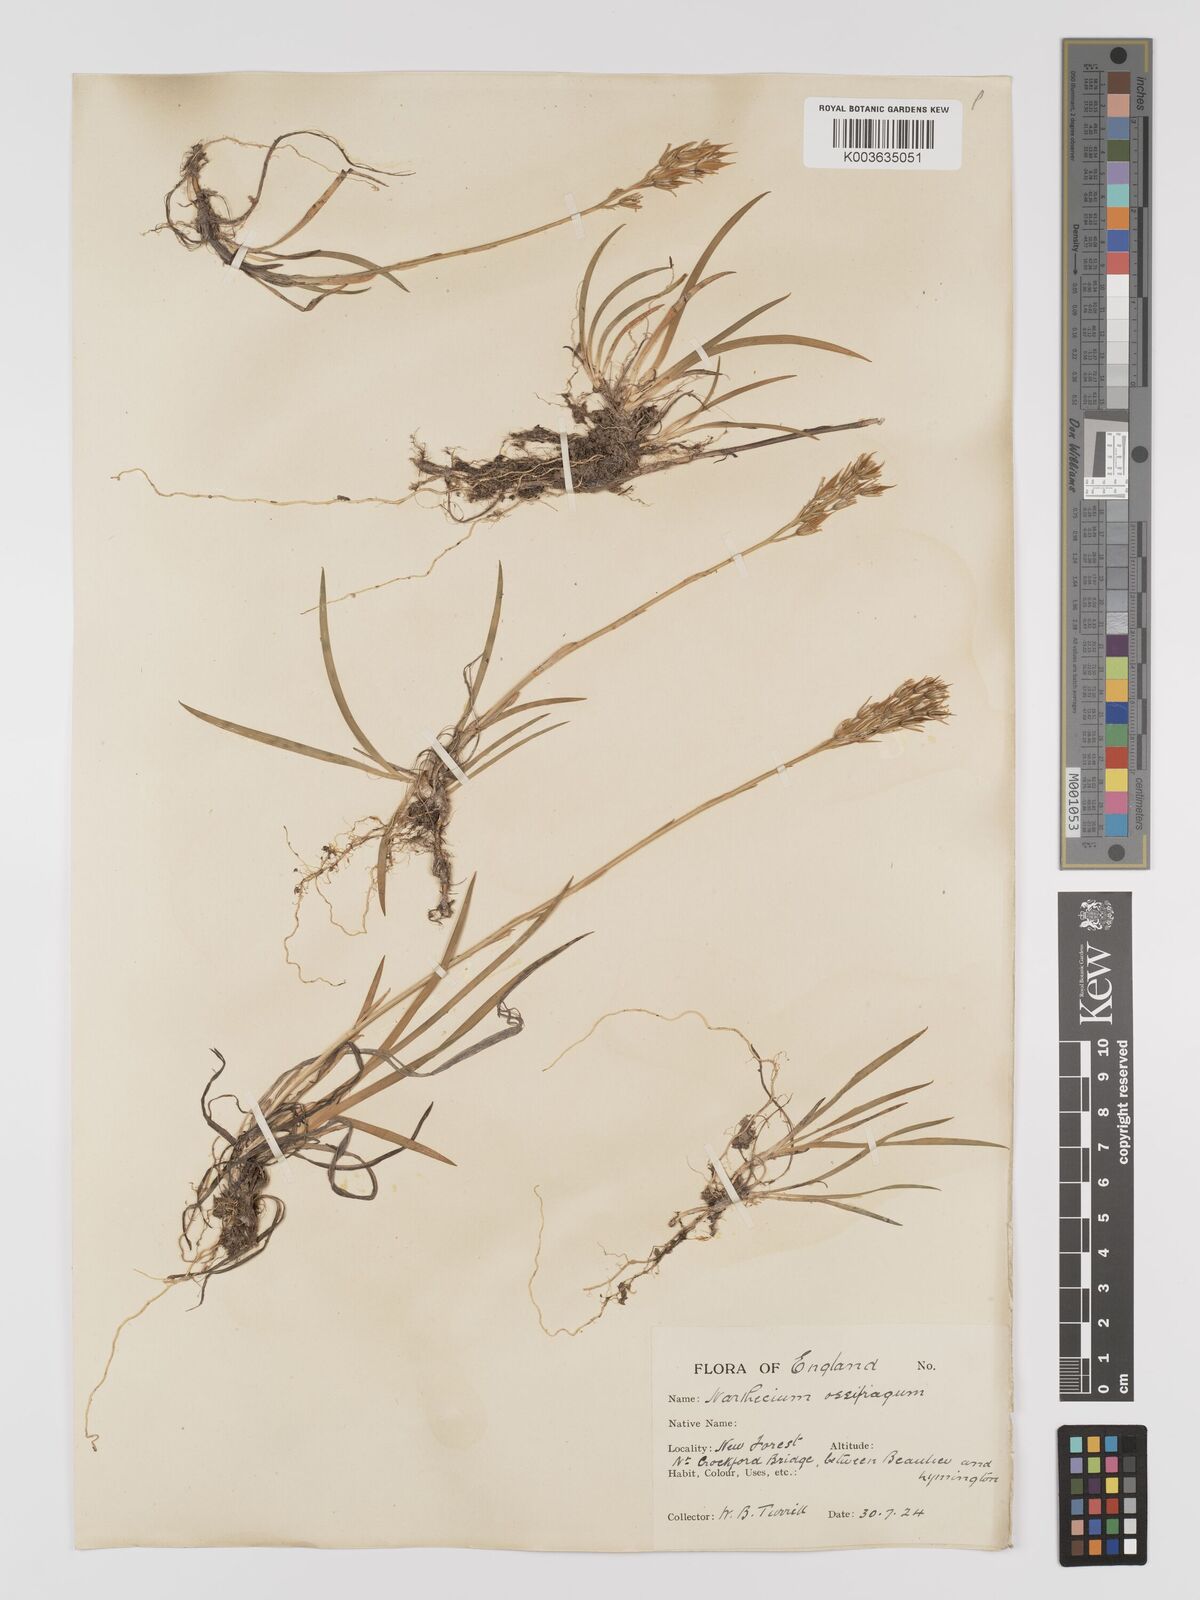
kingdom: Plantae
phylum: Tracheophyta
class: Liliopsida
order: Dioscoreales
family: Nartheciaceae
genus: Narthecium
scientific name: Narthecium
